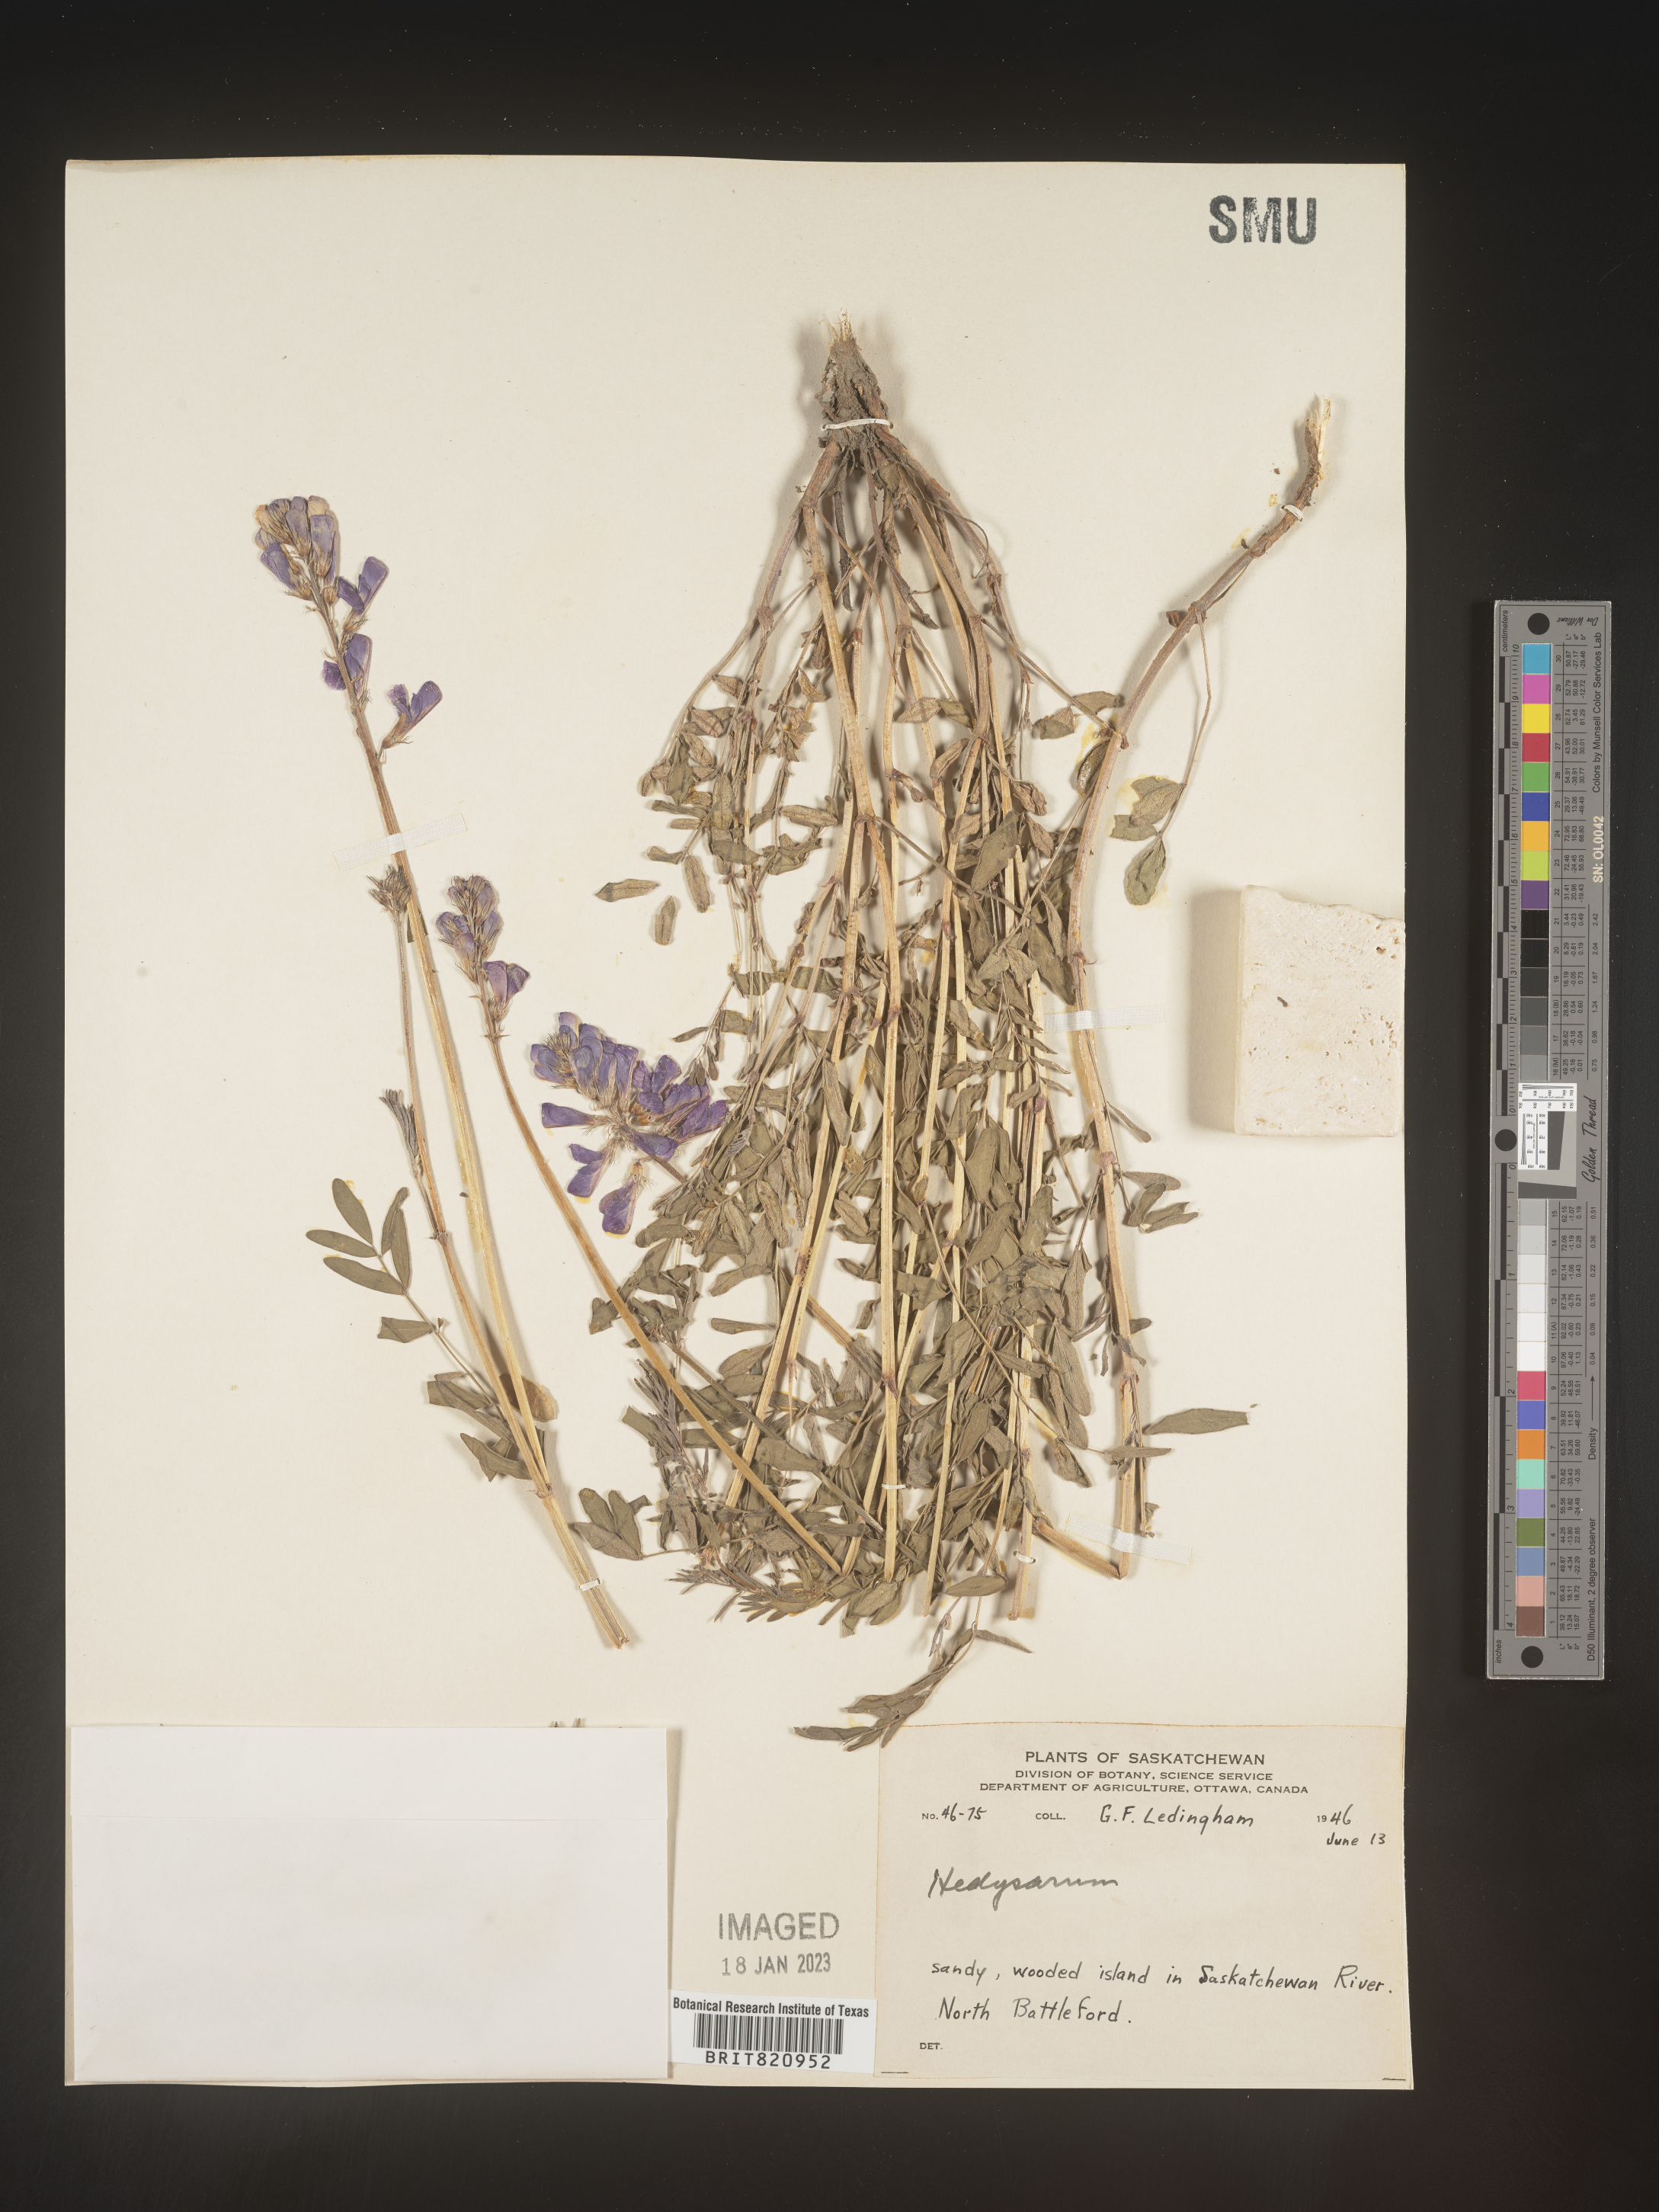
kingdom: Plantae
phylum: Tracheophyta
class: Magnoliopsida
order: Fabales
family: Fabaceae
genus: Hedysarum
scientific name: Hedysarum boreale
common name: Northern sweet-vetch
